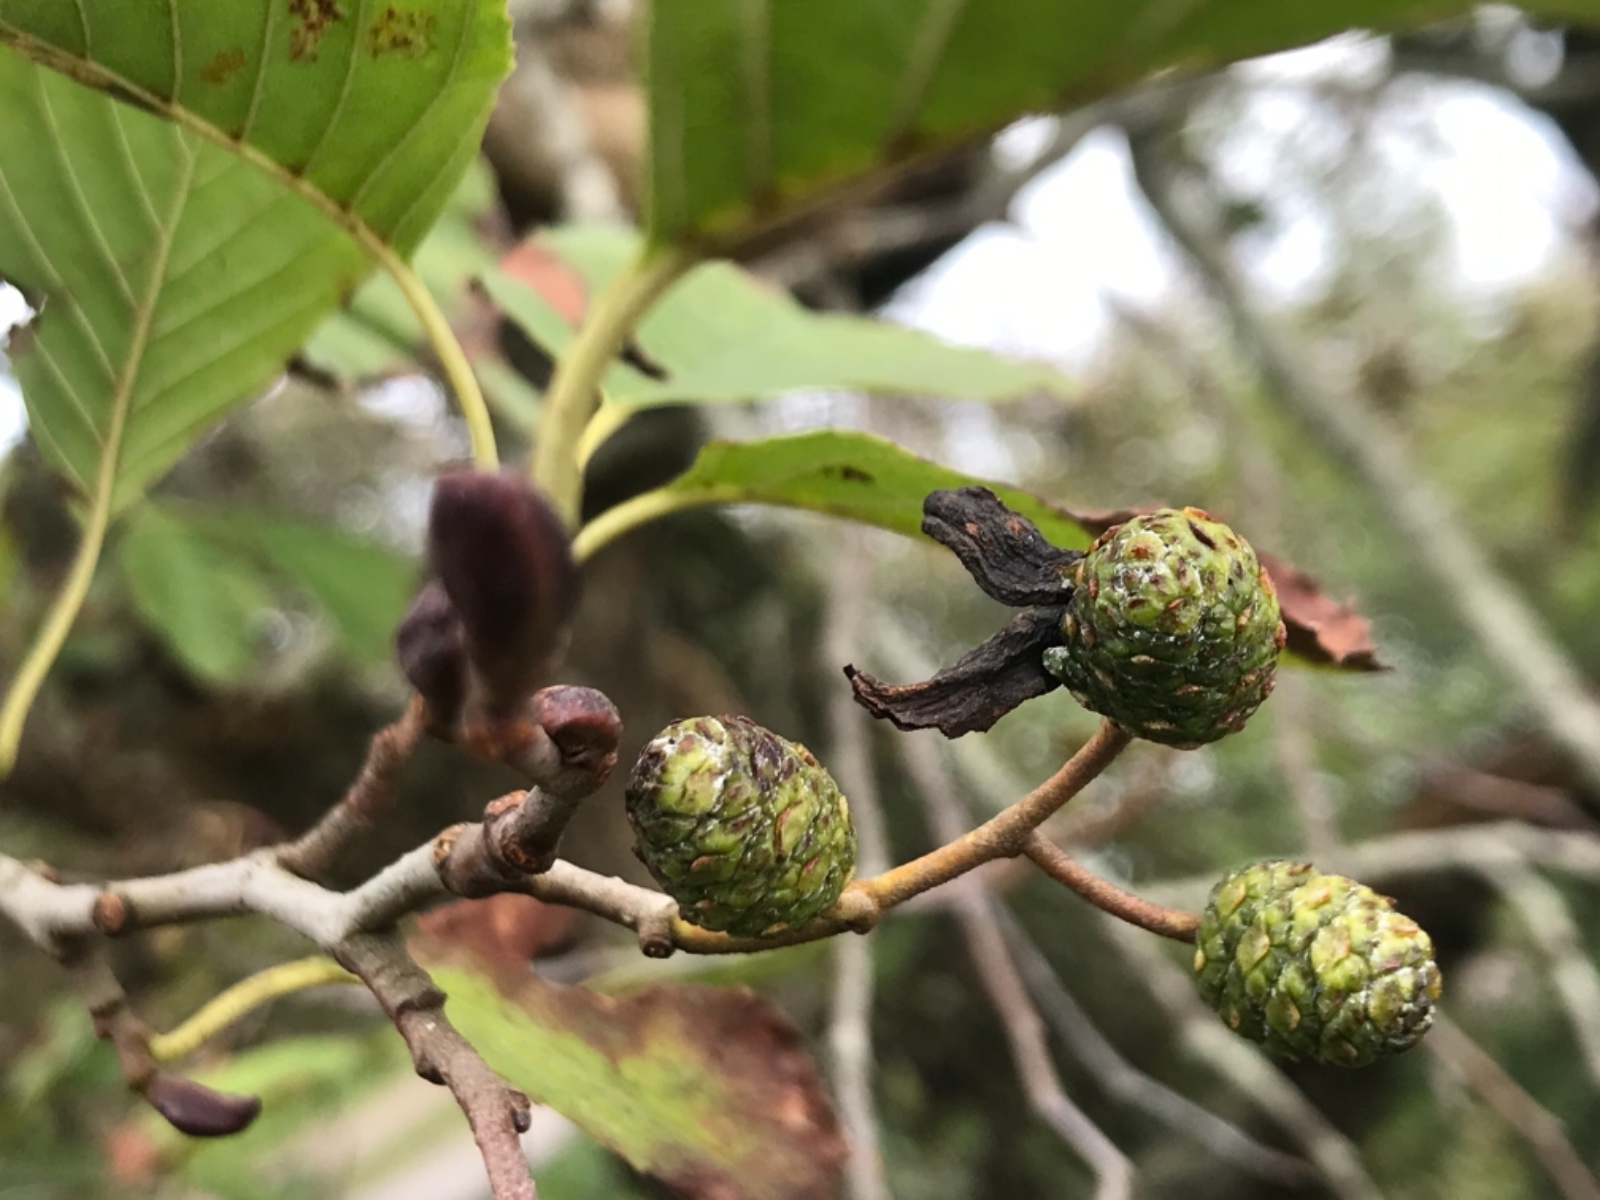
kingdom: Fungi
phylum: Ascomycota
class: Taphrinomycetes
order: Taphrinales
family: Taphrinaceae
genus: Taphrina
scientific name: Taphrina alni
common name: Alder tongue
